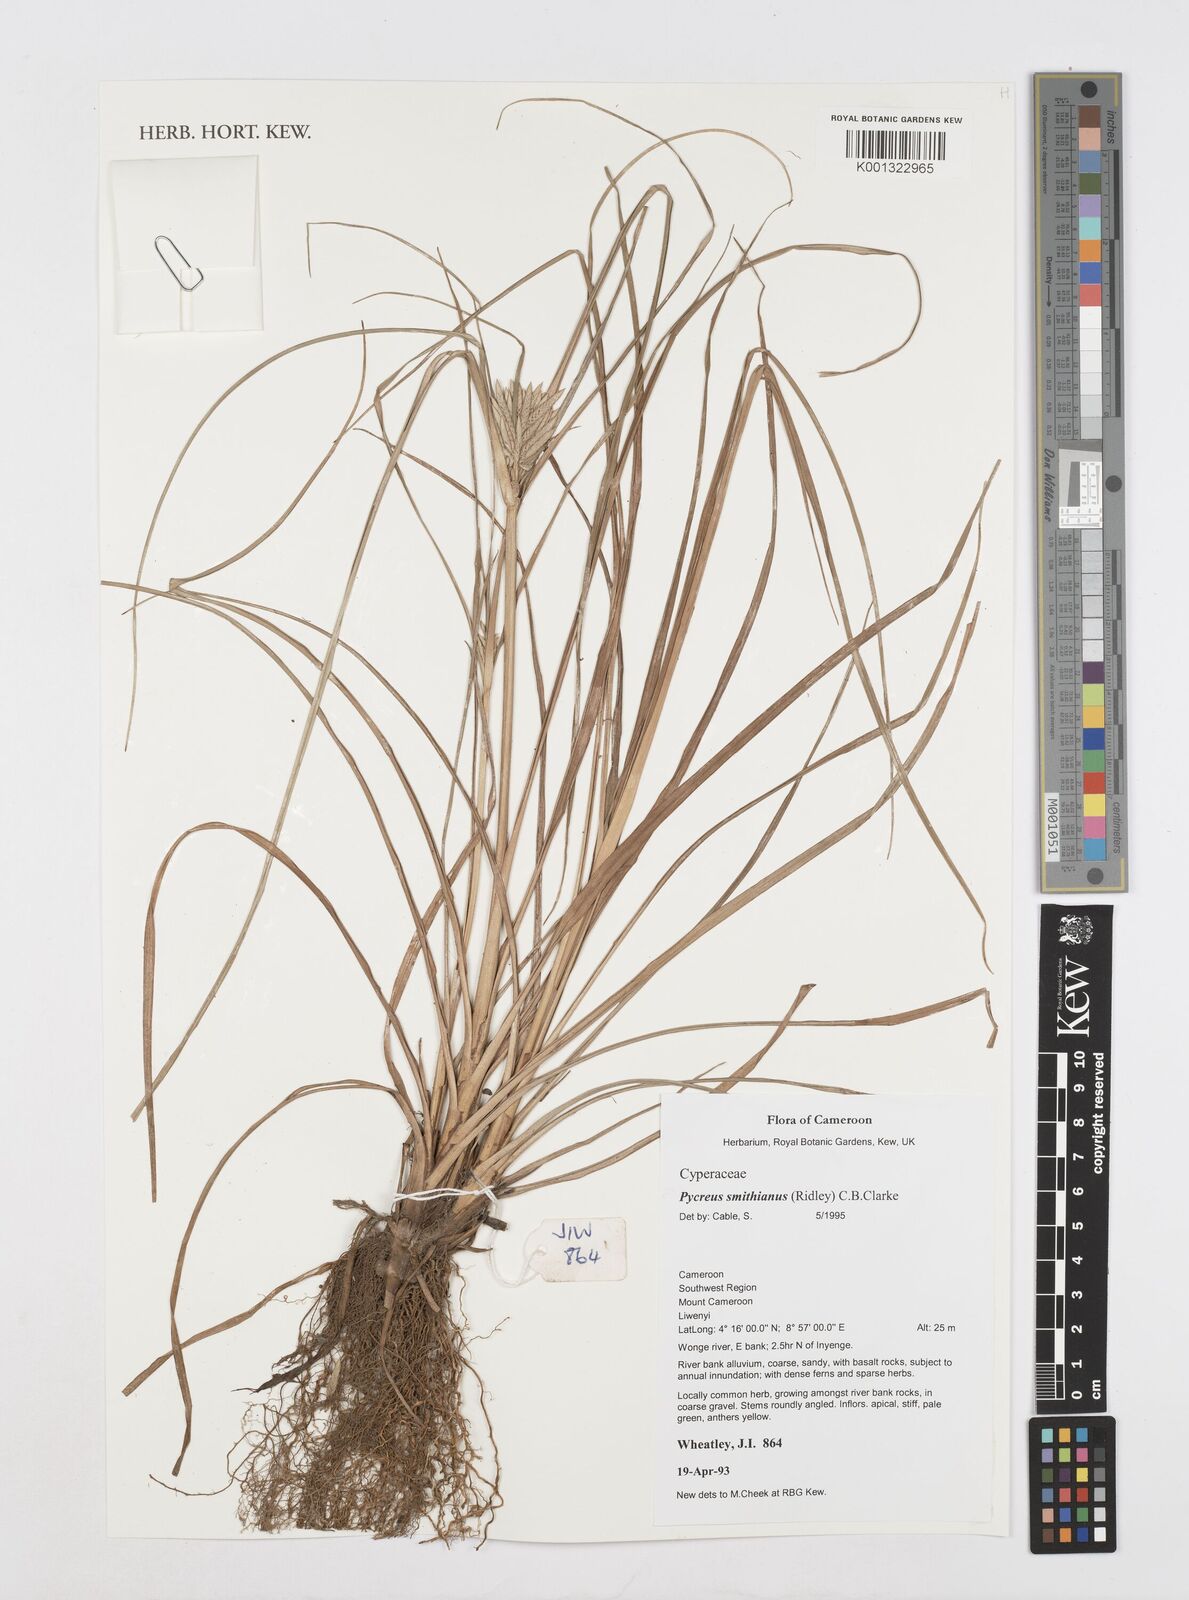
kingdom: Plantae
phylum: Tracheophyta
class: Liliopsida
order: Poales
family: Cyperaceae
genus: Cyperus
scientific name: Cyperus smithianus
